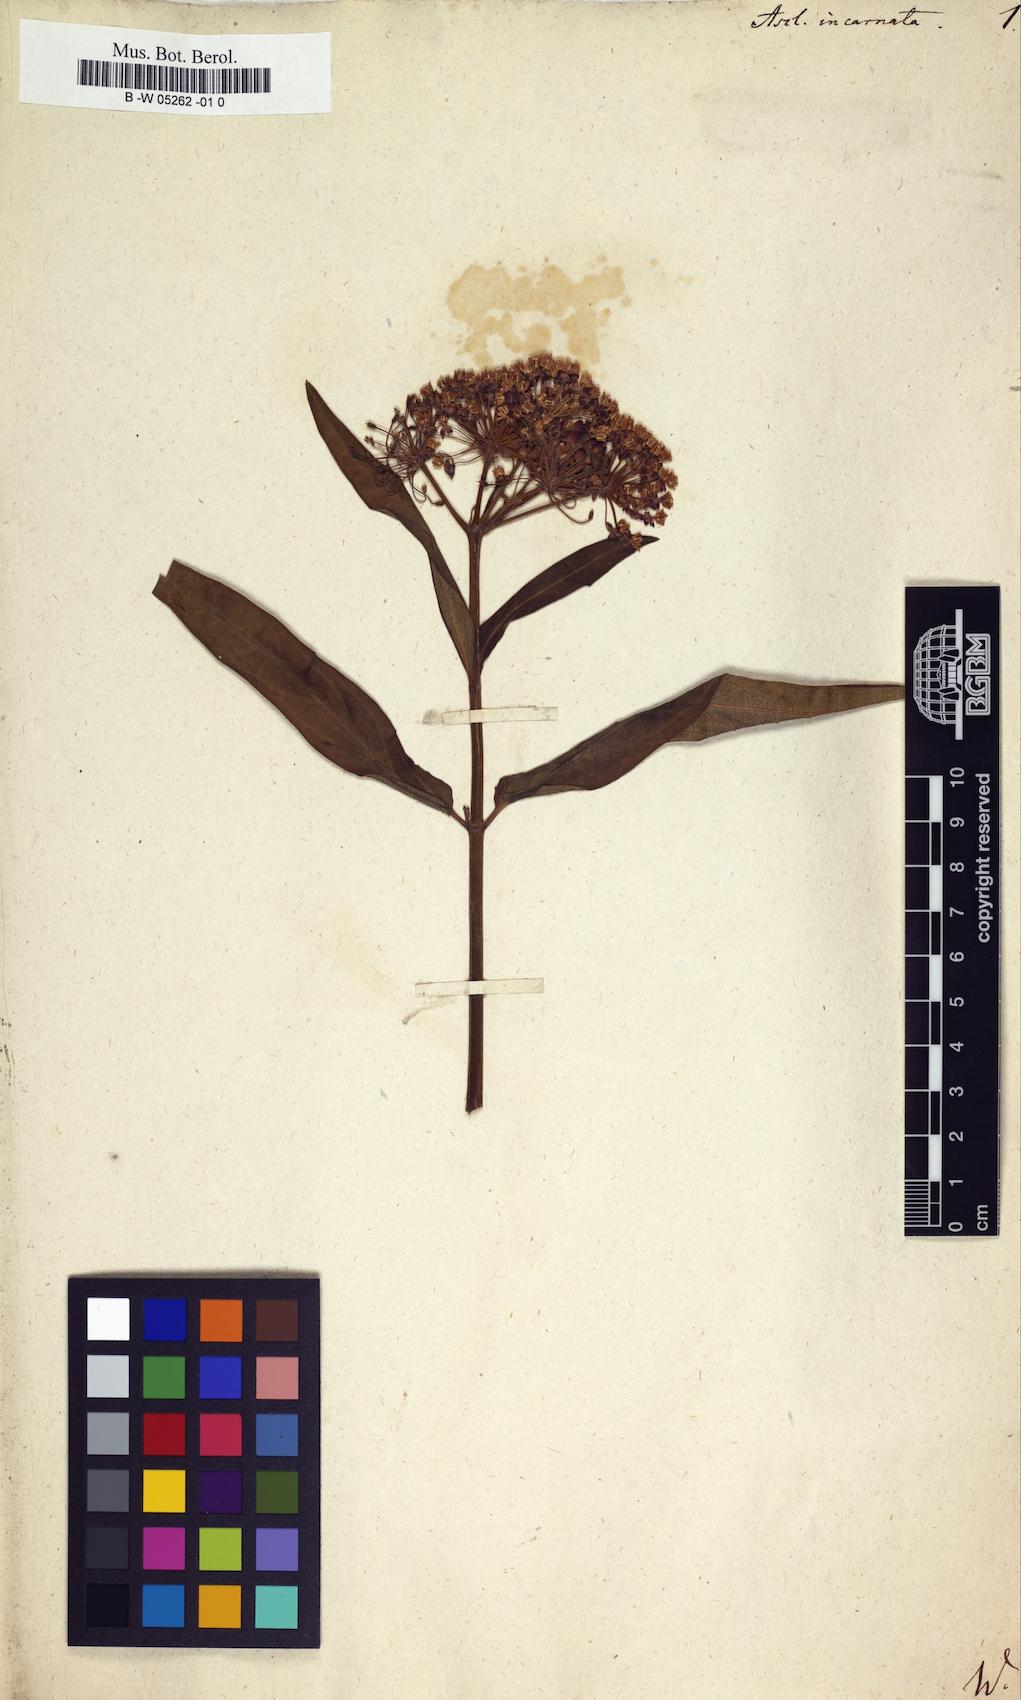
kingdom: Plantae
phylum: Tracheophyta
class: Magnoliopsida
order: Gentianales
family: Apocynaceae
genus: Asclepias
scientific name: Asclepias incarnata
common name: Swamp milkweed
